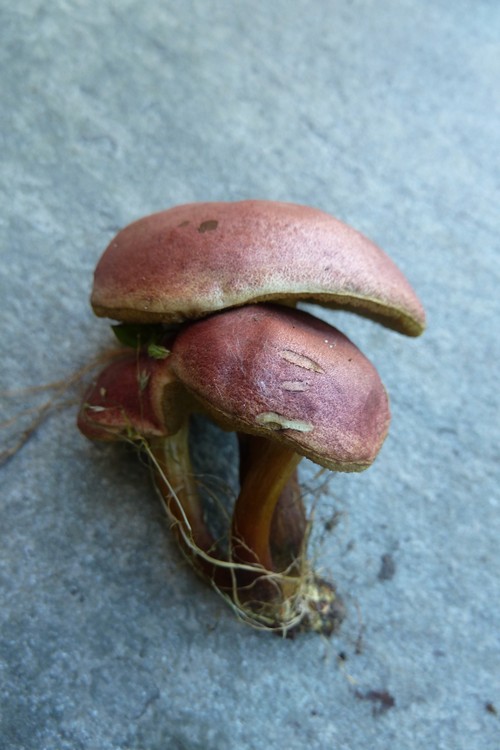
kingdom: Fungi
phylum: Basidiomycota
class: Agaricomycetes
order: Boletales
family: Boletaceae
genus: Hortiboletus
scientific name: Hortiboletus rubellus
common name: blodrød rørhat
